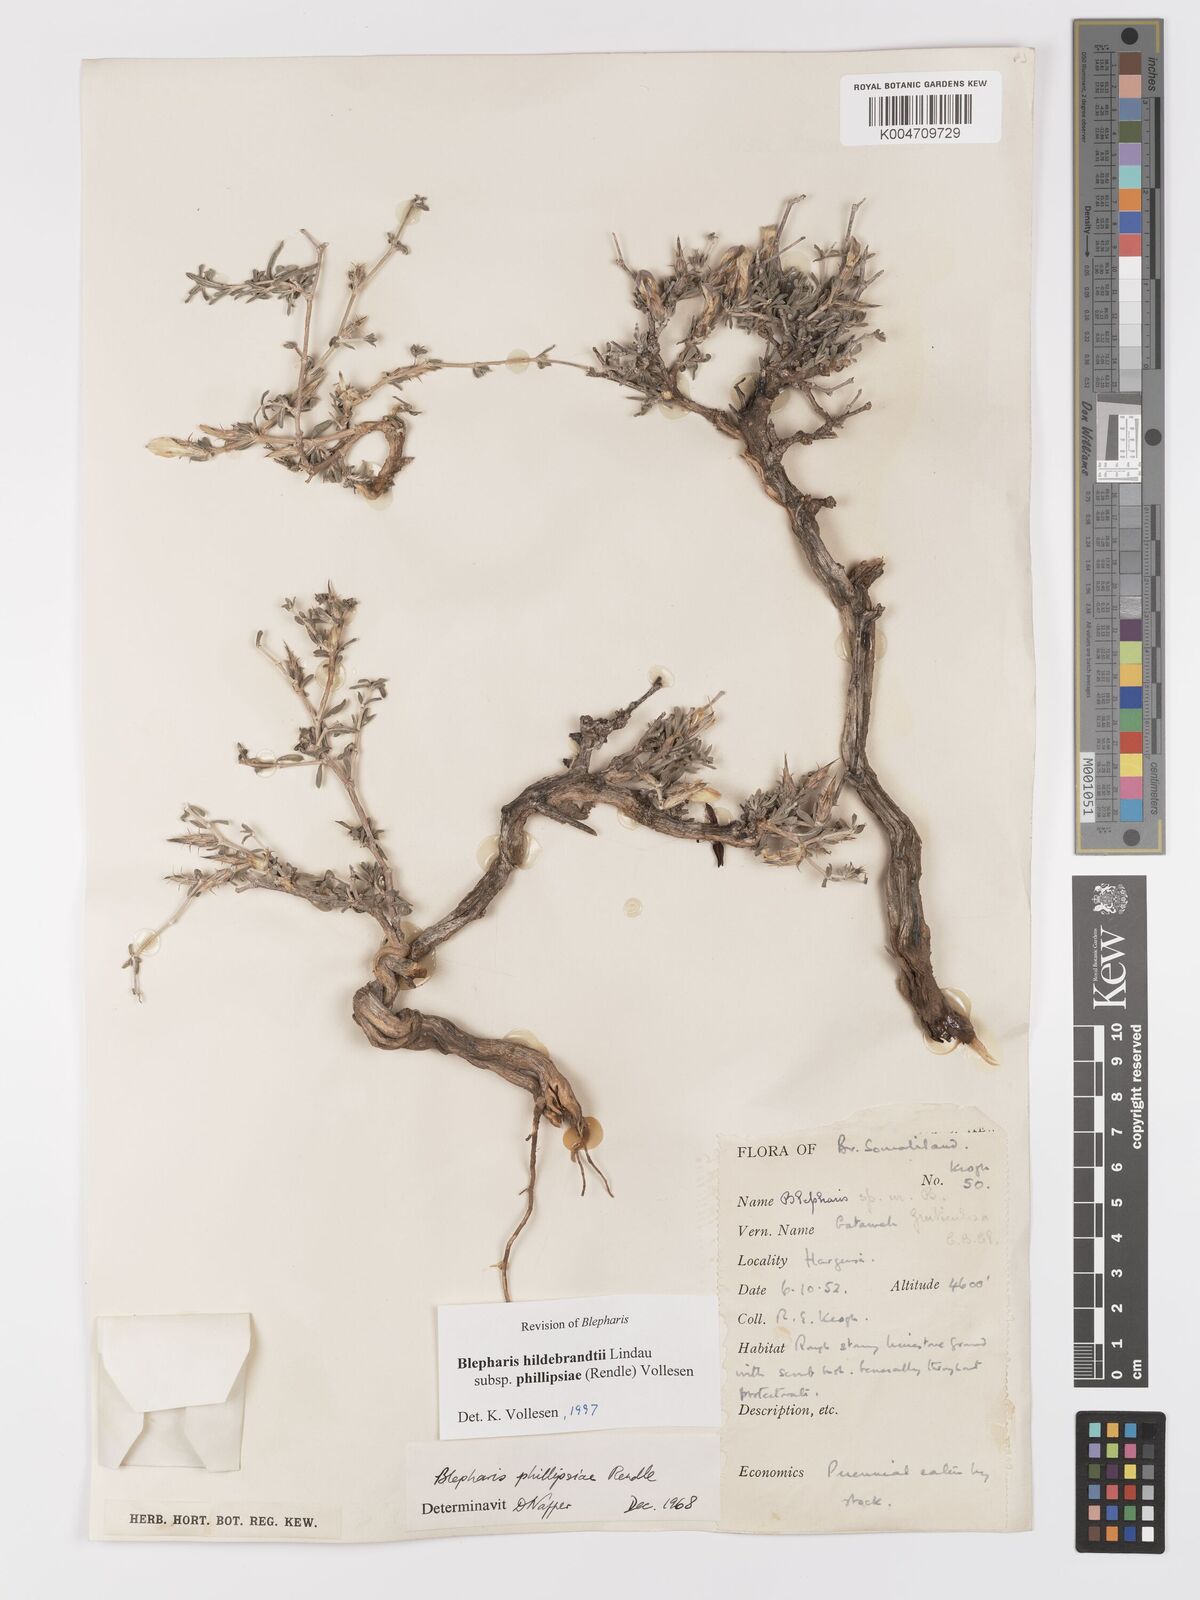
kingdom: Plantae
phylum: Tracheophyta
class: Magnoliopsida
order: Lamiales
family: Acanthaceae
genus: Blepharis
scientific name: Blepharis hildebrandtii
